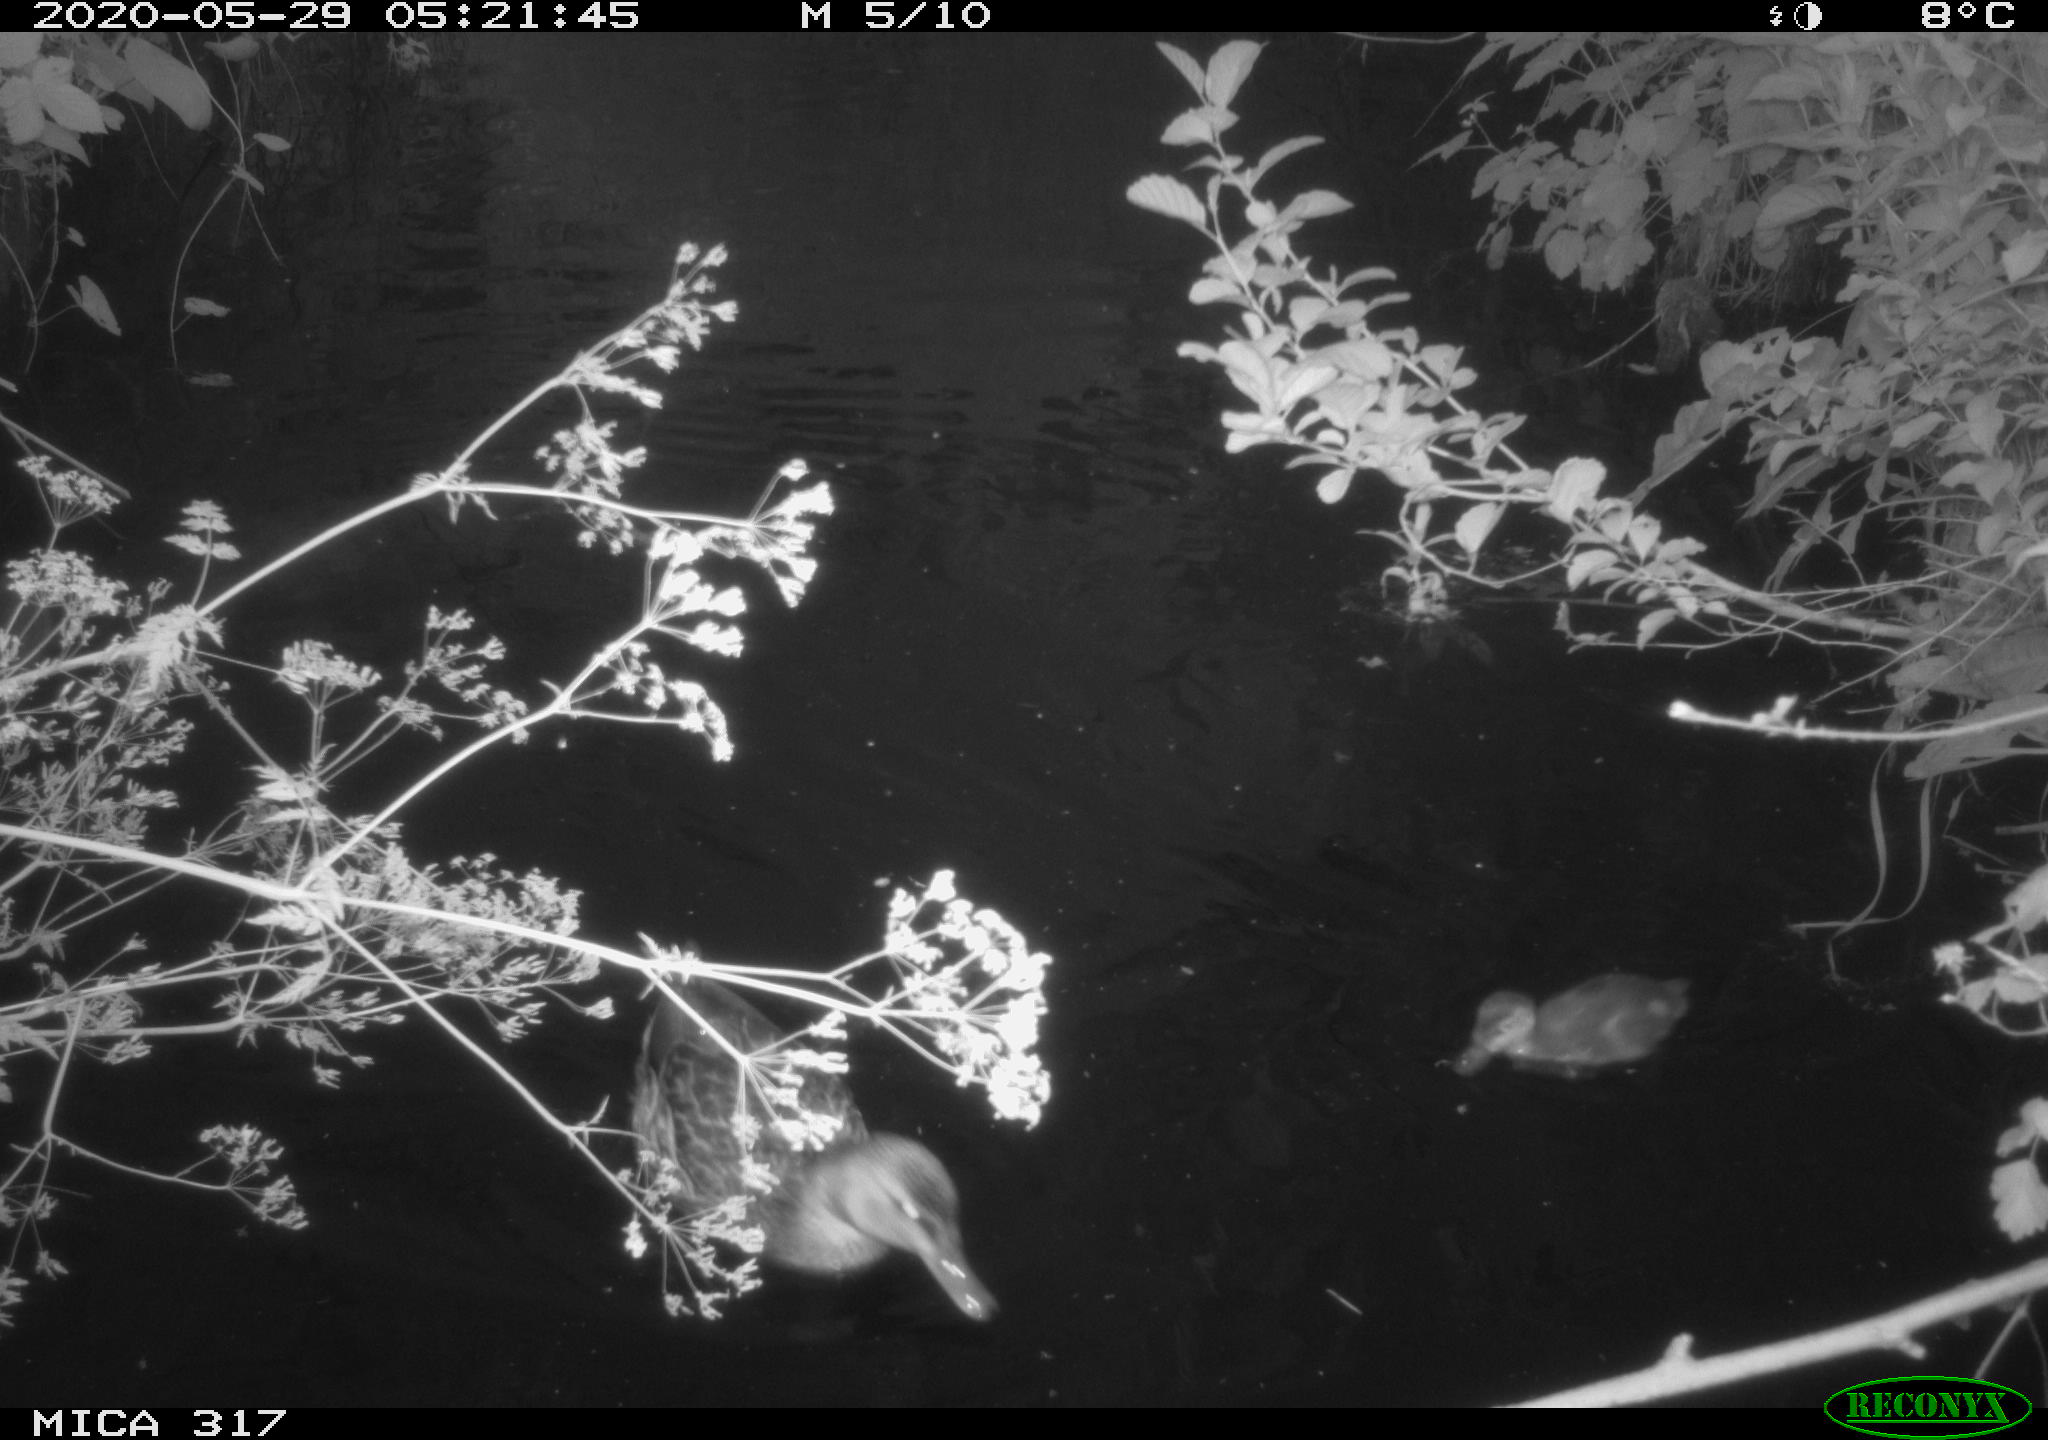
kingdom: Animalia
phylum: Chordata
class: Aves
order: Anseriformes
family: Anatidae
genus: Anas
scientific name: Anas platyrhynchos
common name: Mallard
